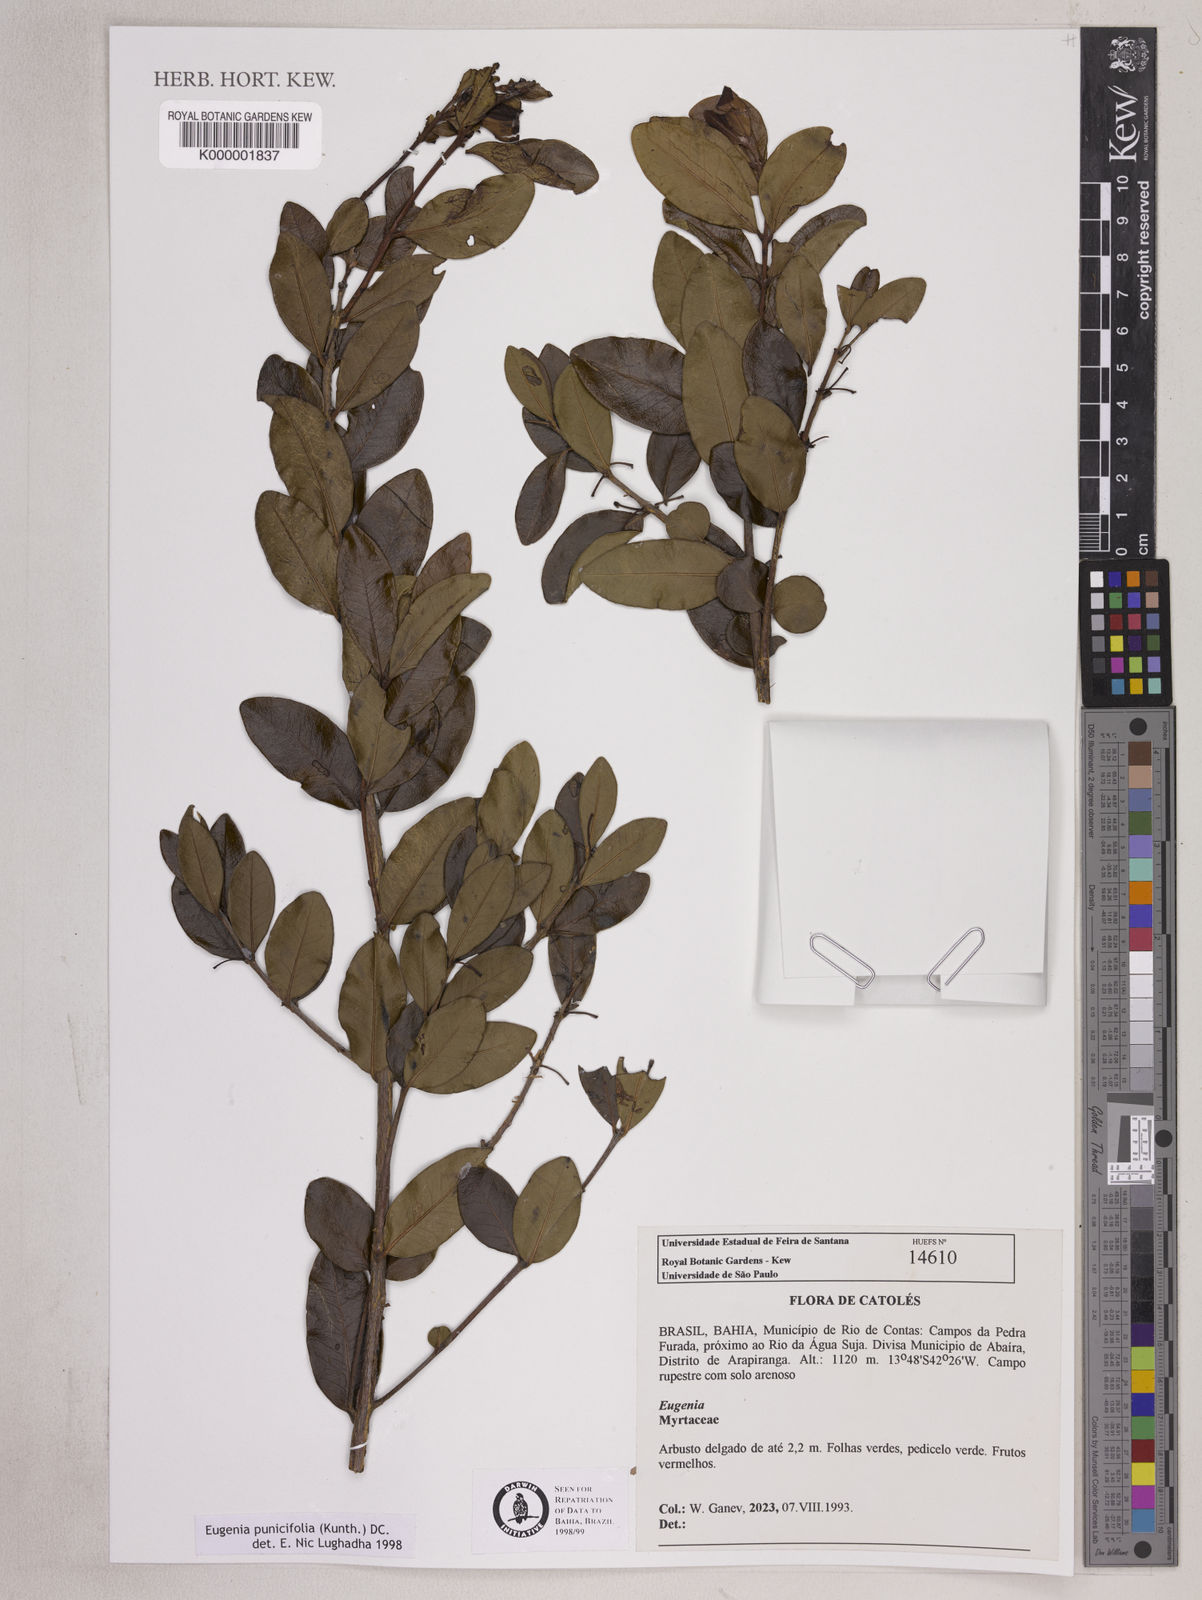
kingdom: Plantae
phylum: Tracheophyta
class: Magnoliopsida
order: Myrtales
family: Myrtaceae
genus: Eugenia
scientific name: Eugenia punicifolia
